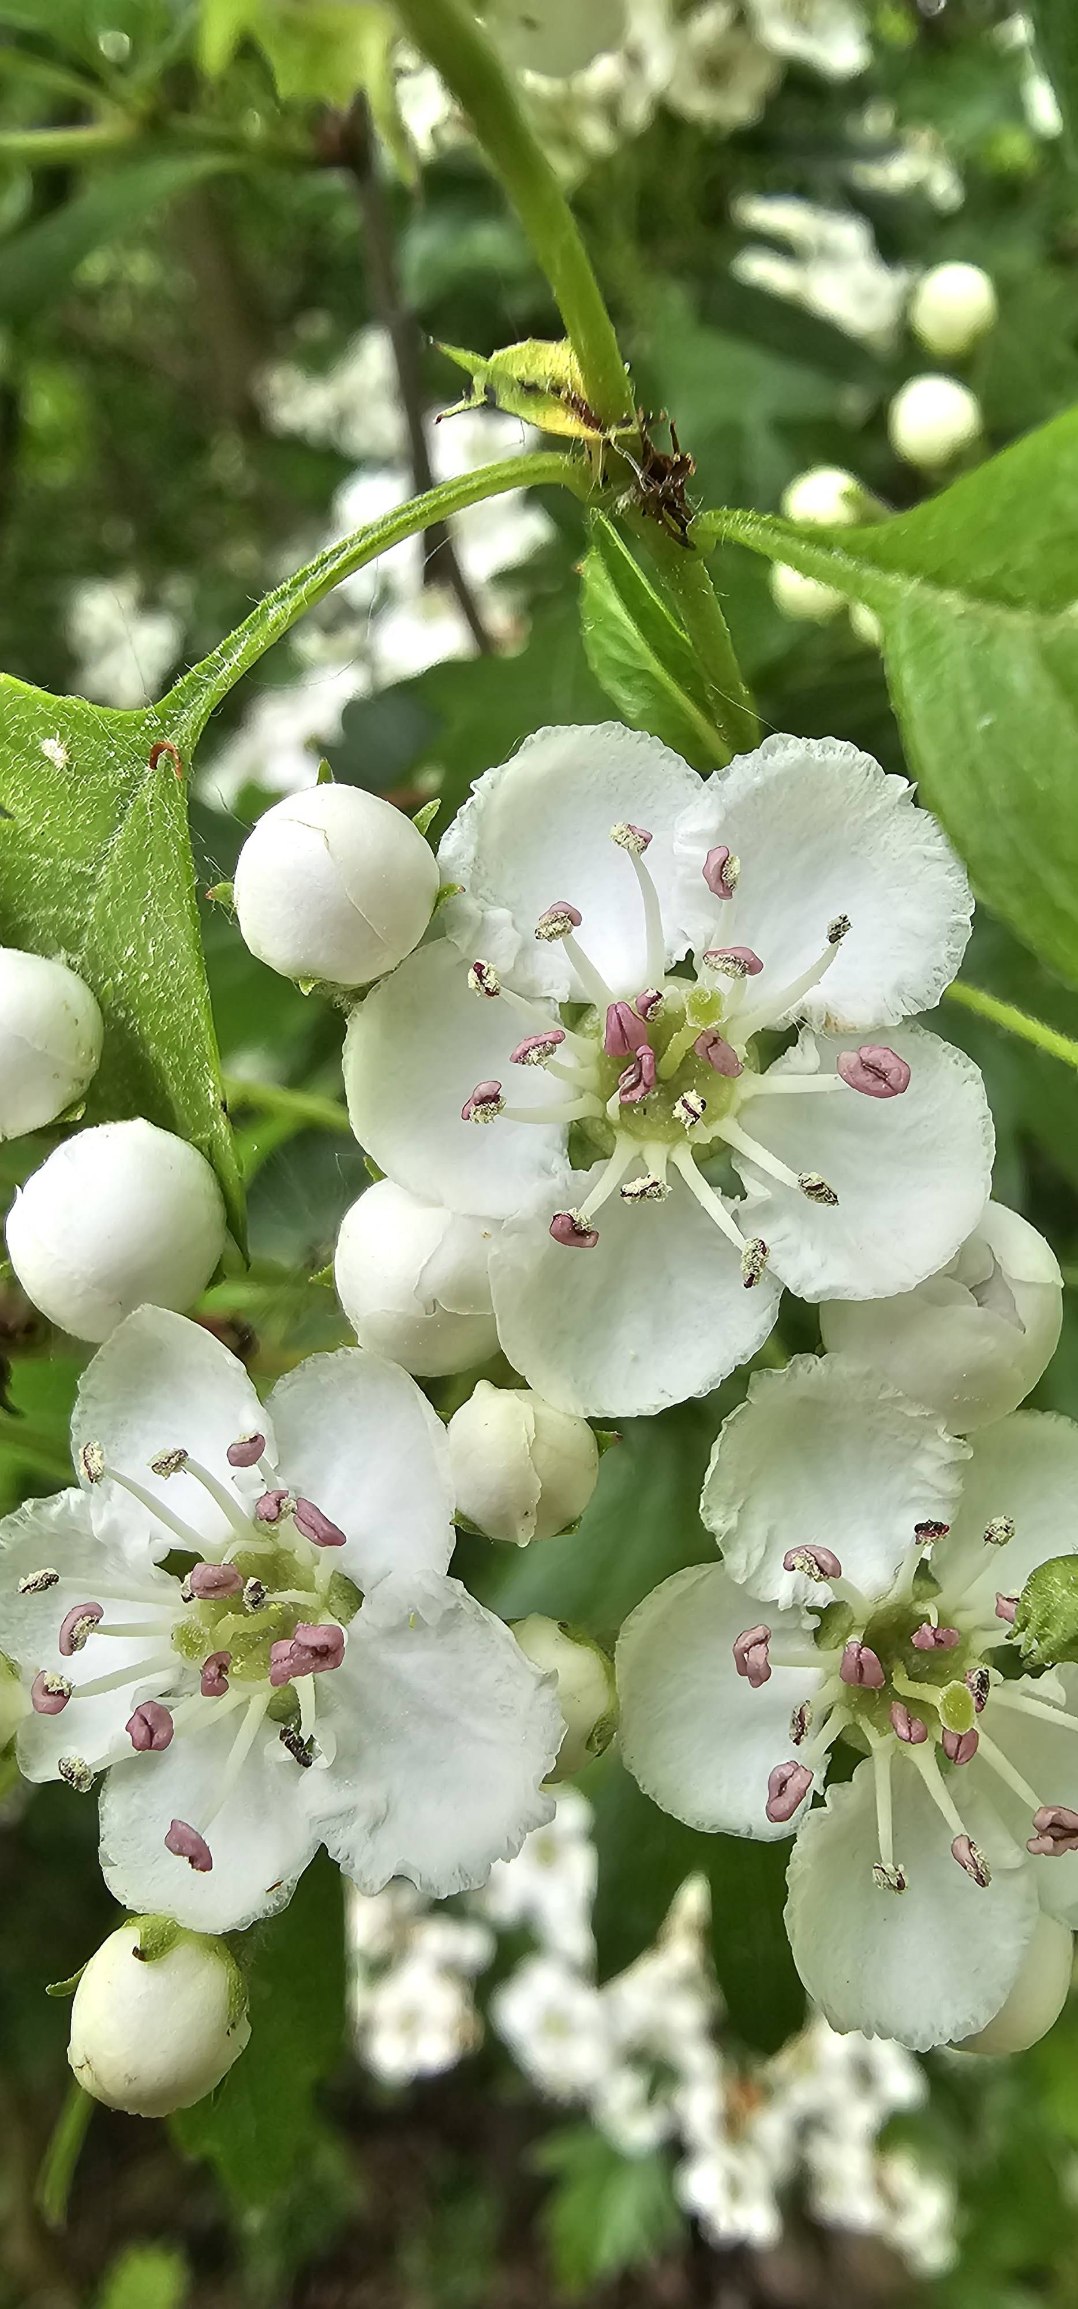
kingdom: Plantae
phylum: Tracheophyta
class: Magnoliopsida
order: Rosales
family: Rosaceae
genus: Crataegus
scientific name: Crataegus monogyna
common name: Engriflet hvidtjørn
